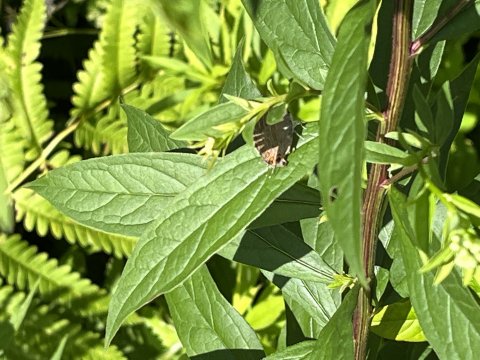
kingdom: Animalia
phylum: Arthropoda
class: Insecta
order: Lepidoptera
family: Lycaenidae
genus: Satyrium
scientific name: Satyrium
